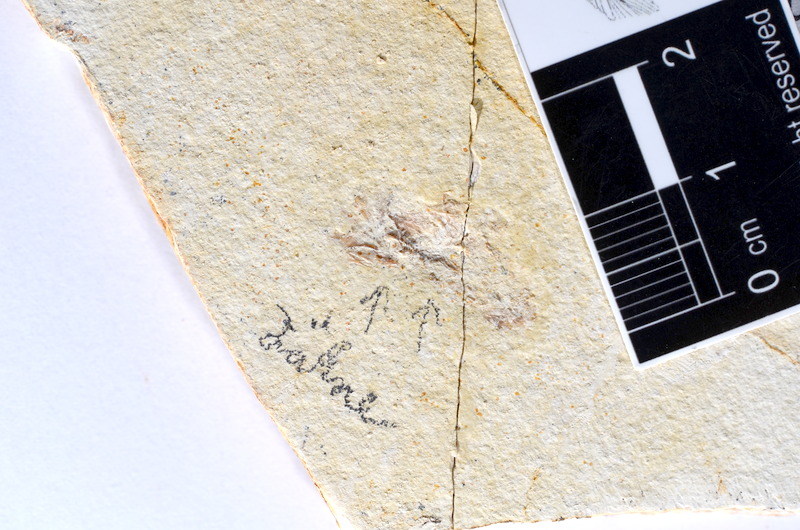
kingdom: Animalia
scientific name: Animalia
